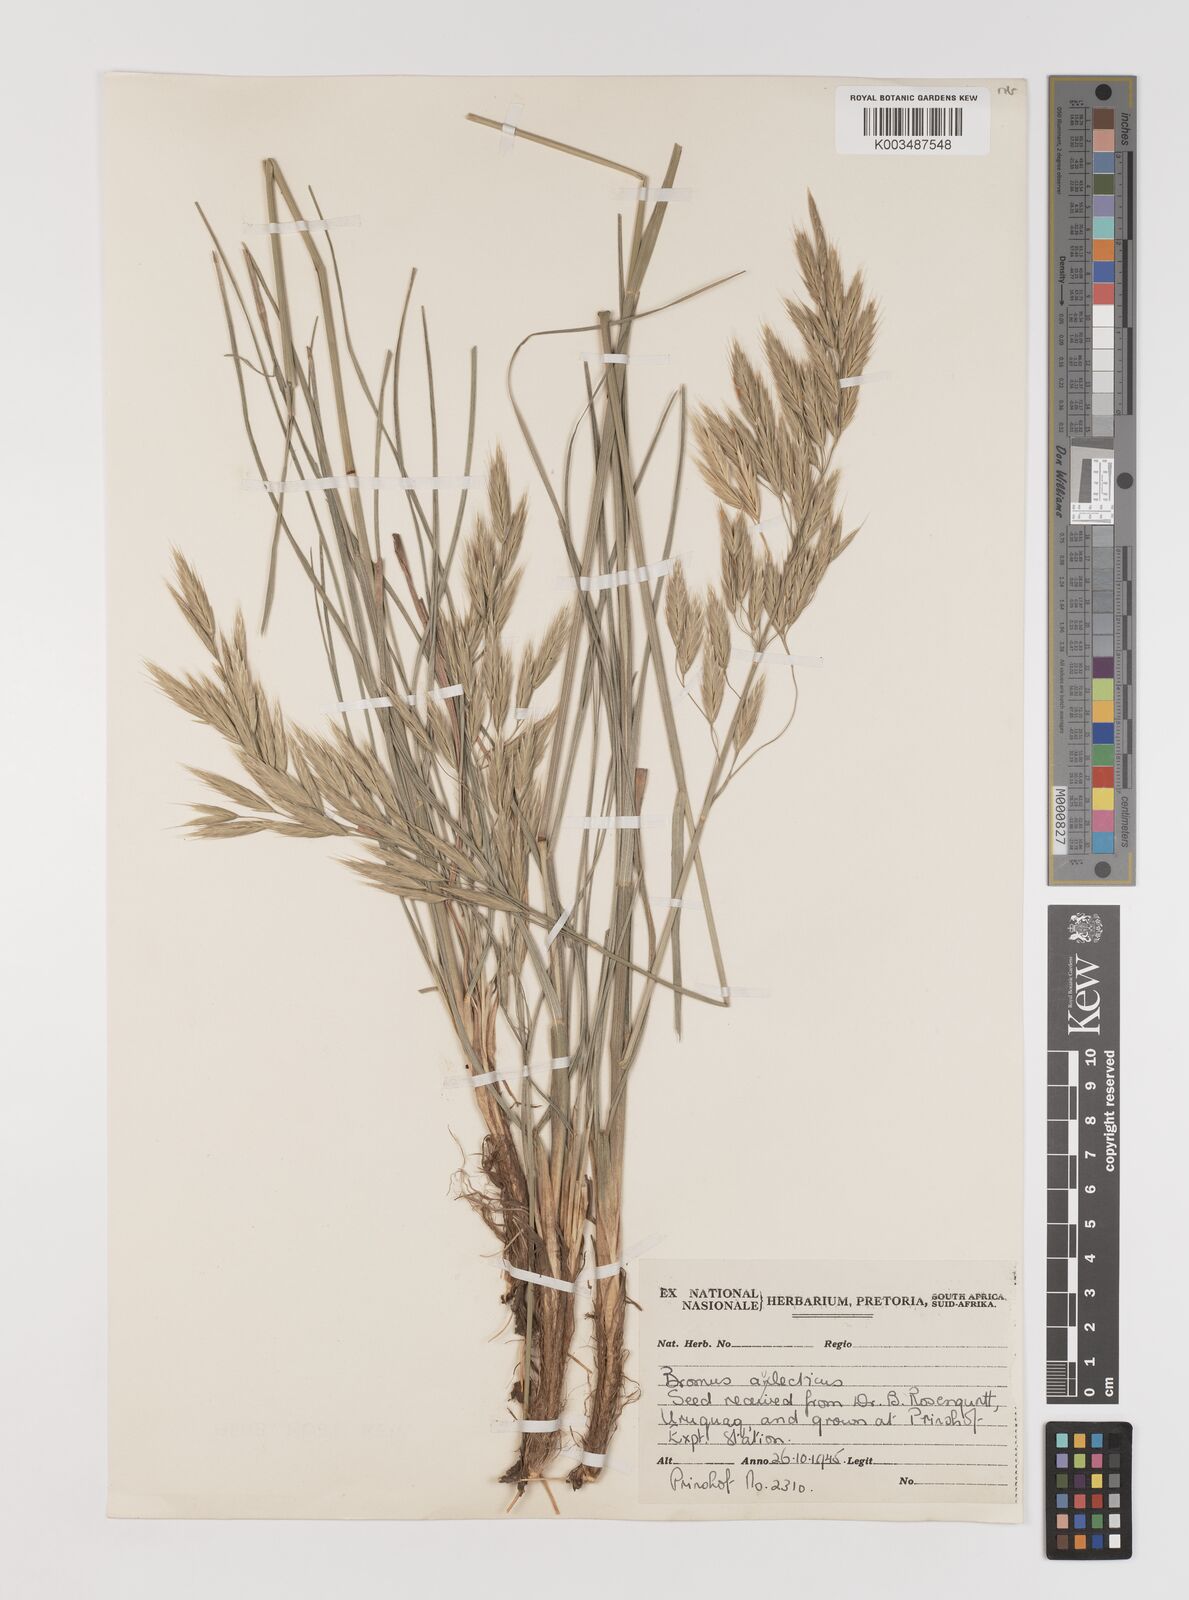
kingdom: Plantae
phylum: Tracheophyta
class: Liliopsida
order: Poales
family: Poaceae
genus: Bromus
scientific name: Bromus auleticus
